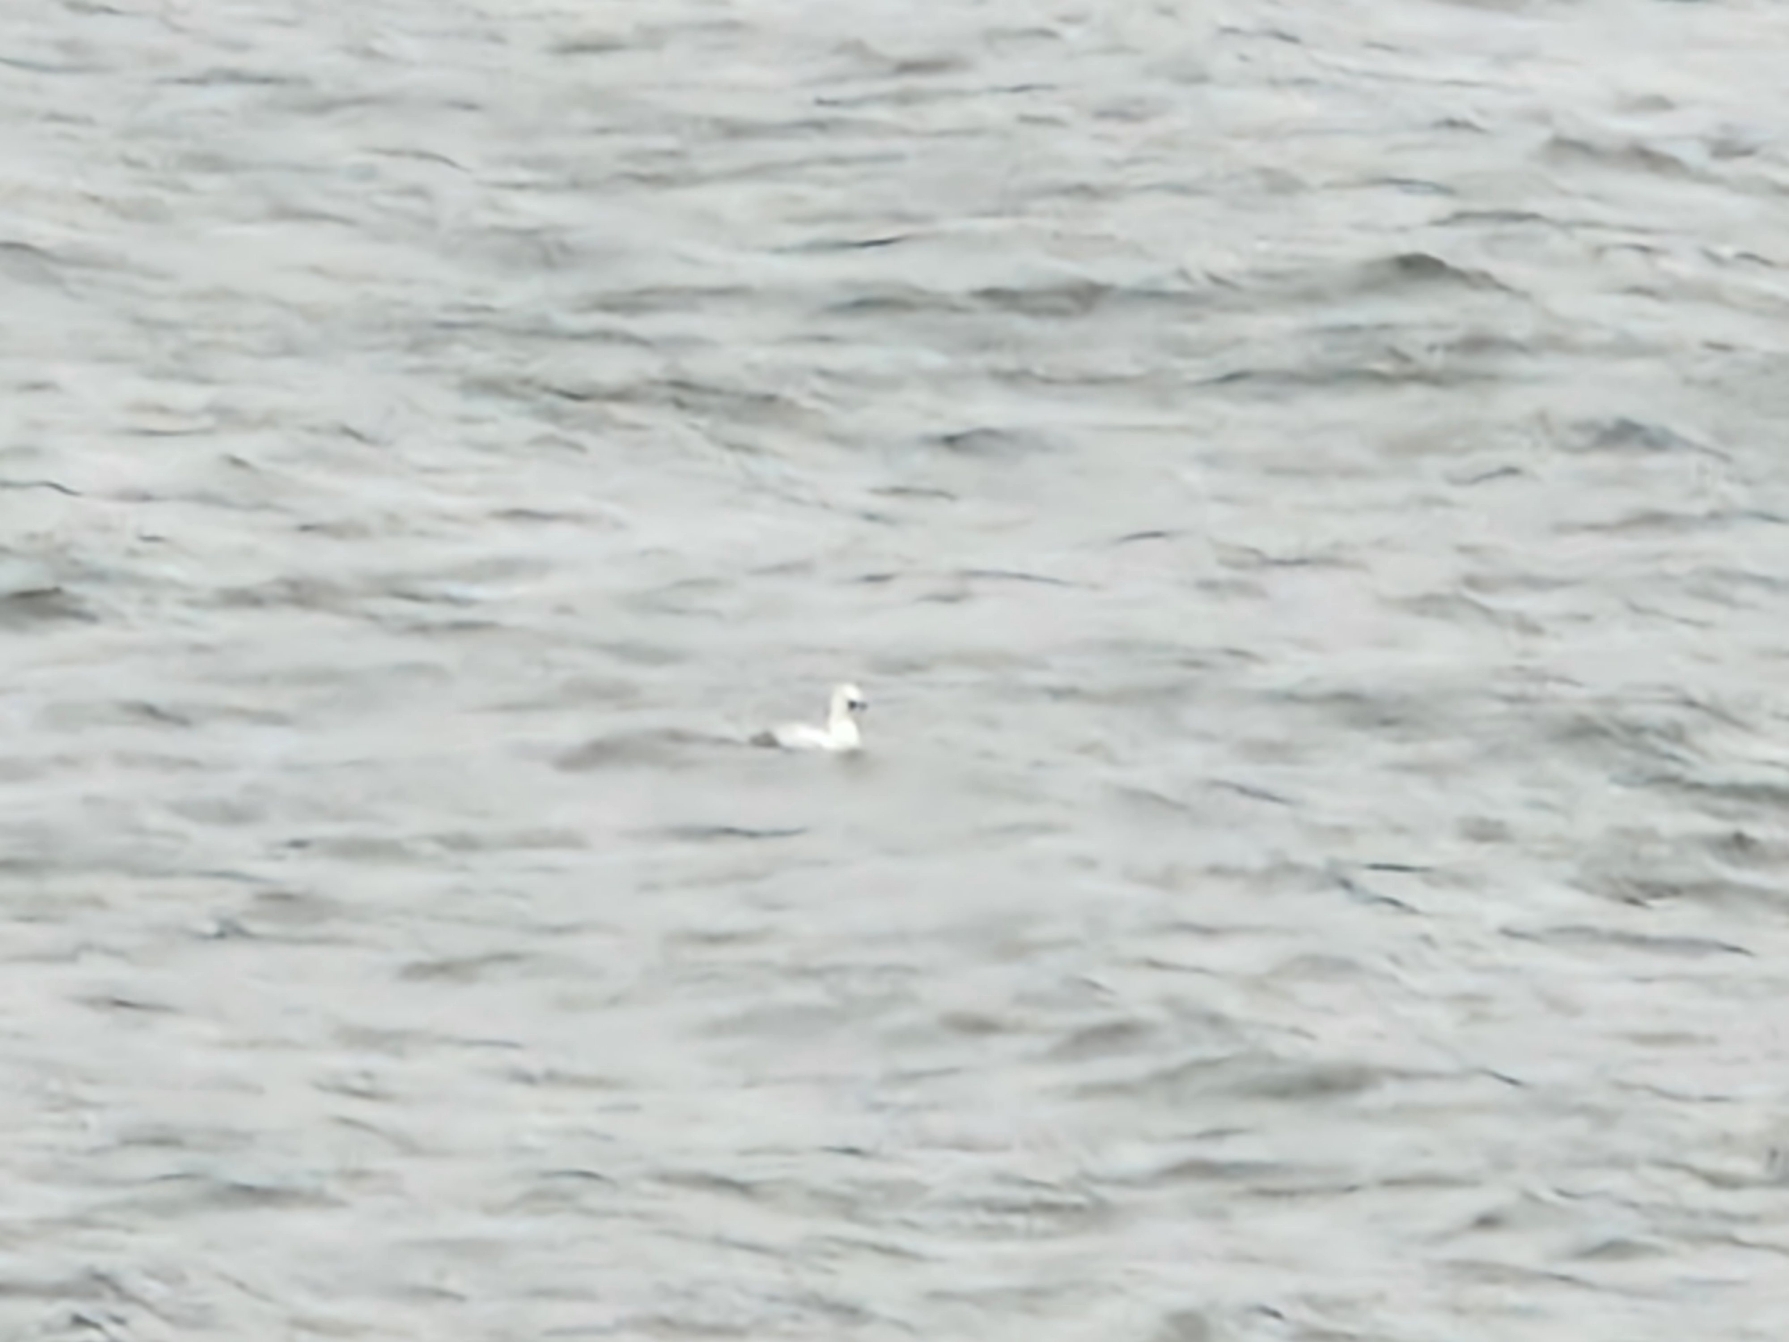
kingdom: Animalia
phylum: Chordata
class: Aves
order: Anseriformes
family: Anatidae
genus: Mergellus
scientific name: Mergellus albellus
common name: Lille skallesluger
